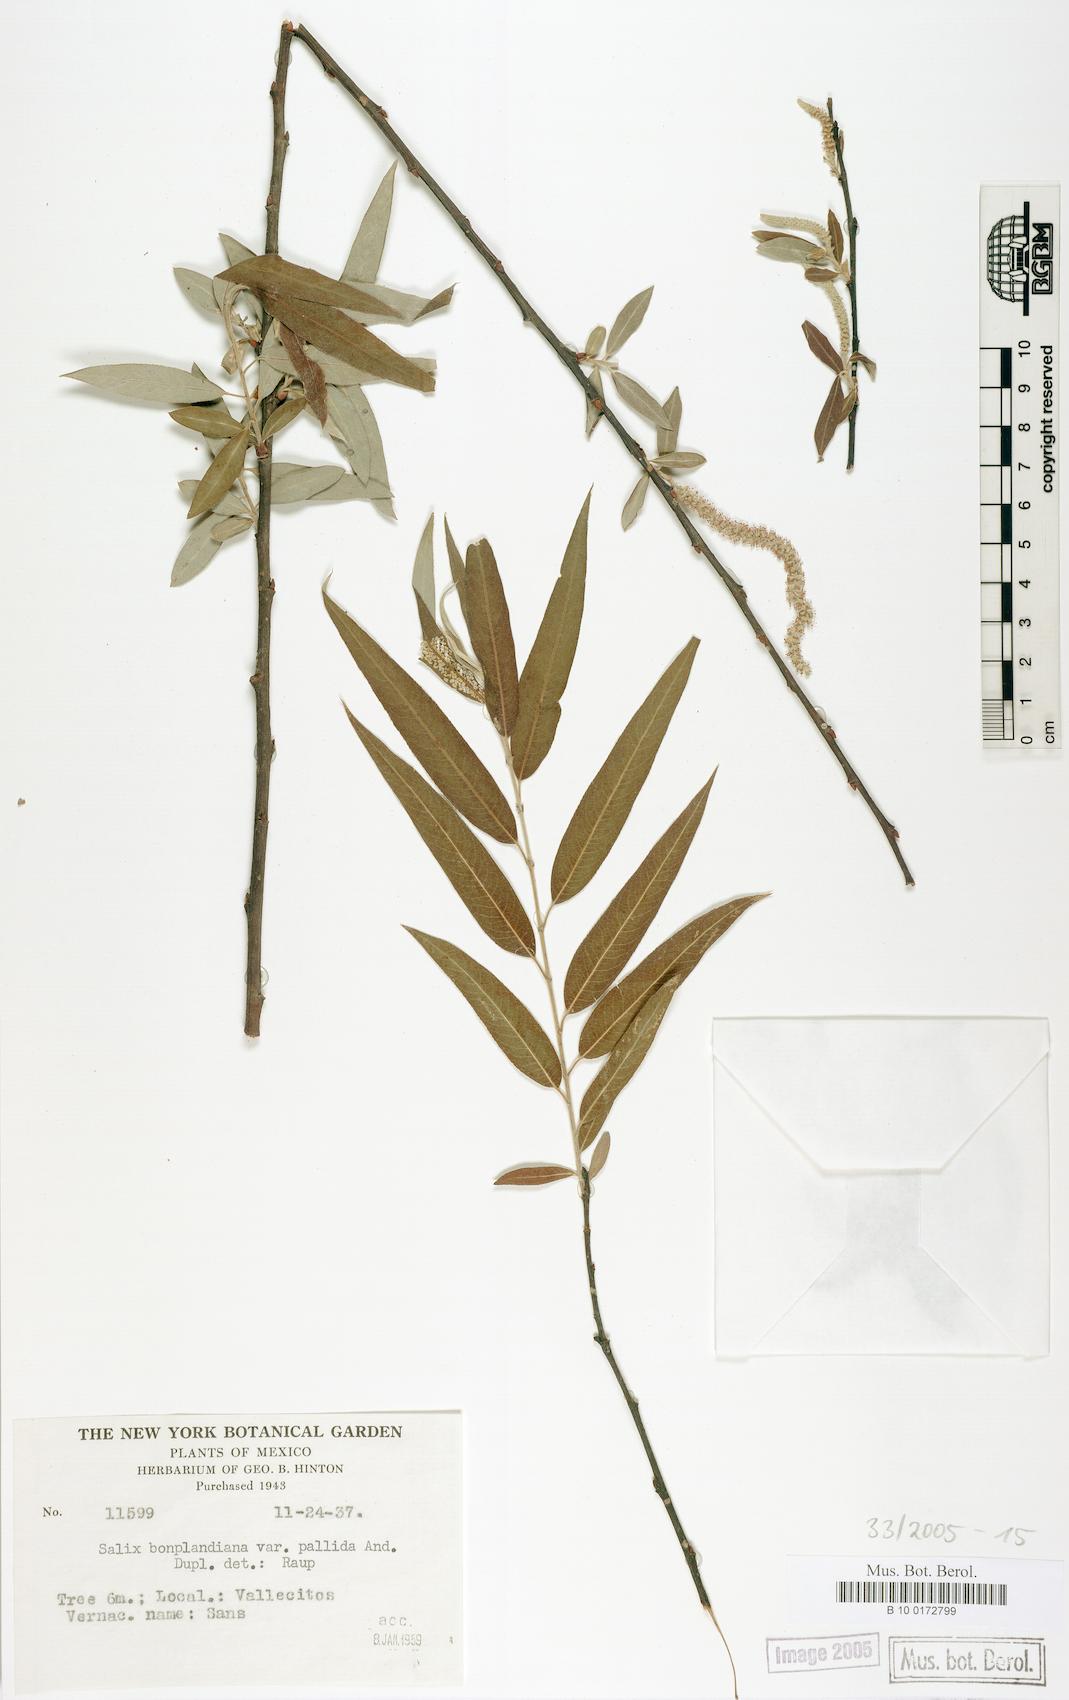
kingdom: Plantae
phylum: Tracheophyta
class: Magnoliopsida
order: Malpighiales
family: Salicaceae
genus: Salix
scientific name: Salix bonplandiana
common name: Bonpland’s willow
